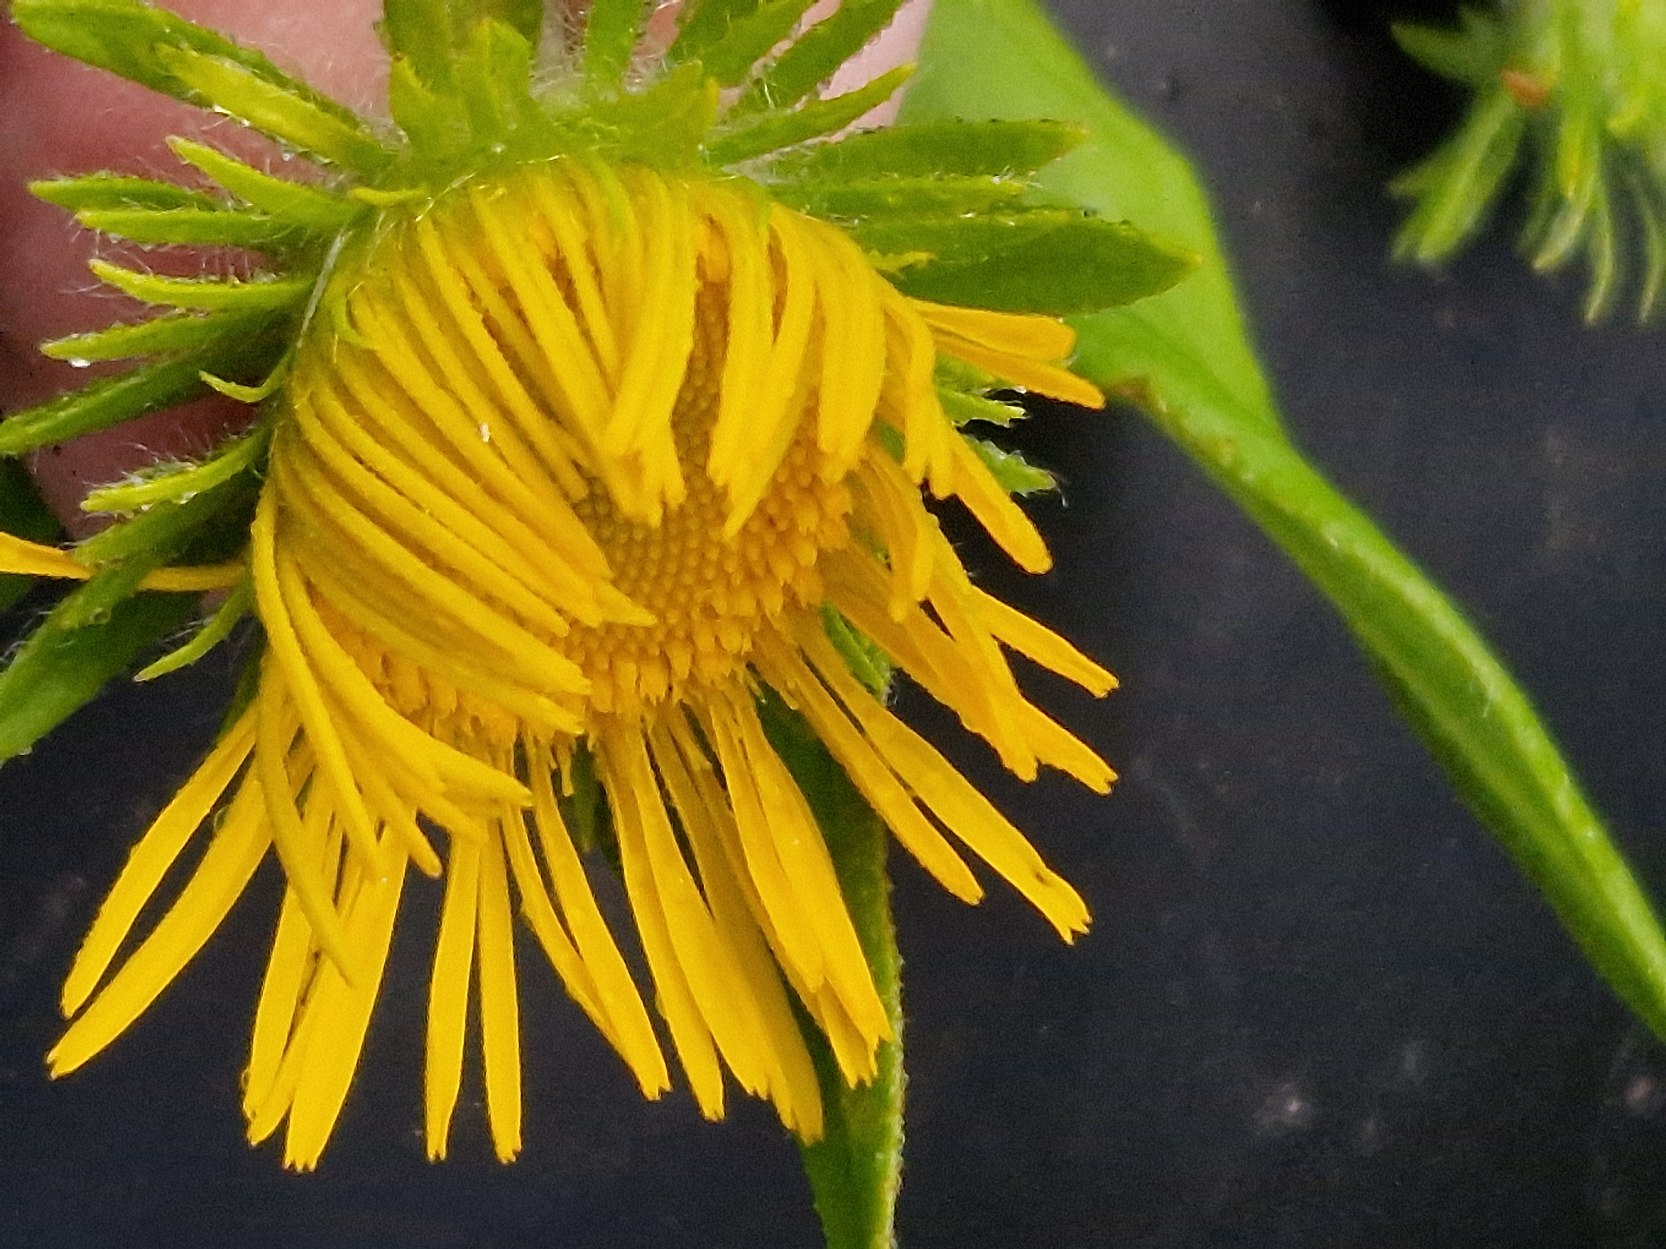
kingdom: Plantae
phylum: Tracheophyta
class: Magnoliopsida
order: Asterales
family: Asteraceae
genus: Pentanema
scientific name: Pentanema britannicum
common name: Soløje-alant
